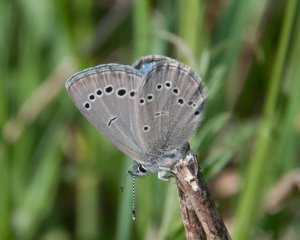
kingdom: Animalia
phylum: Arthropoda
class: Insecta
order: Lepidoptera
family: Lycaenidae
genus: Glaucopsyche
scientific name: Glaucopsyche lygdamus
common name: Silvery Blue
